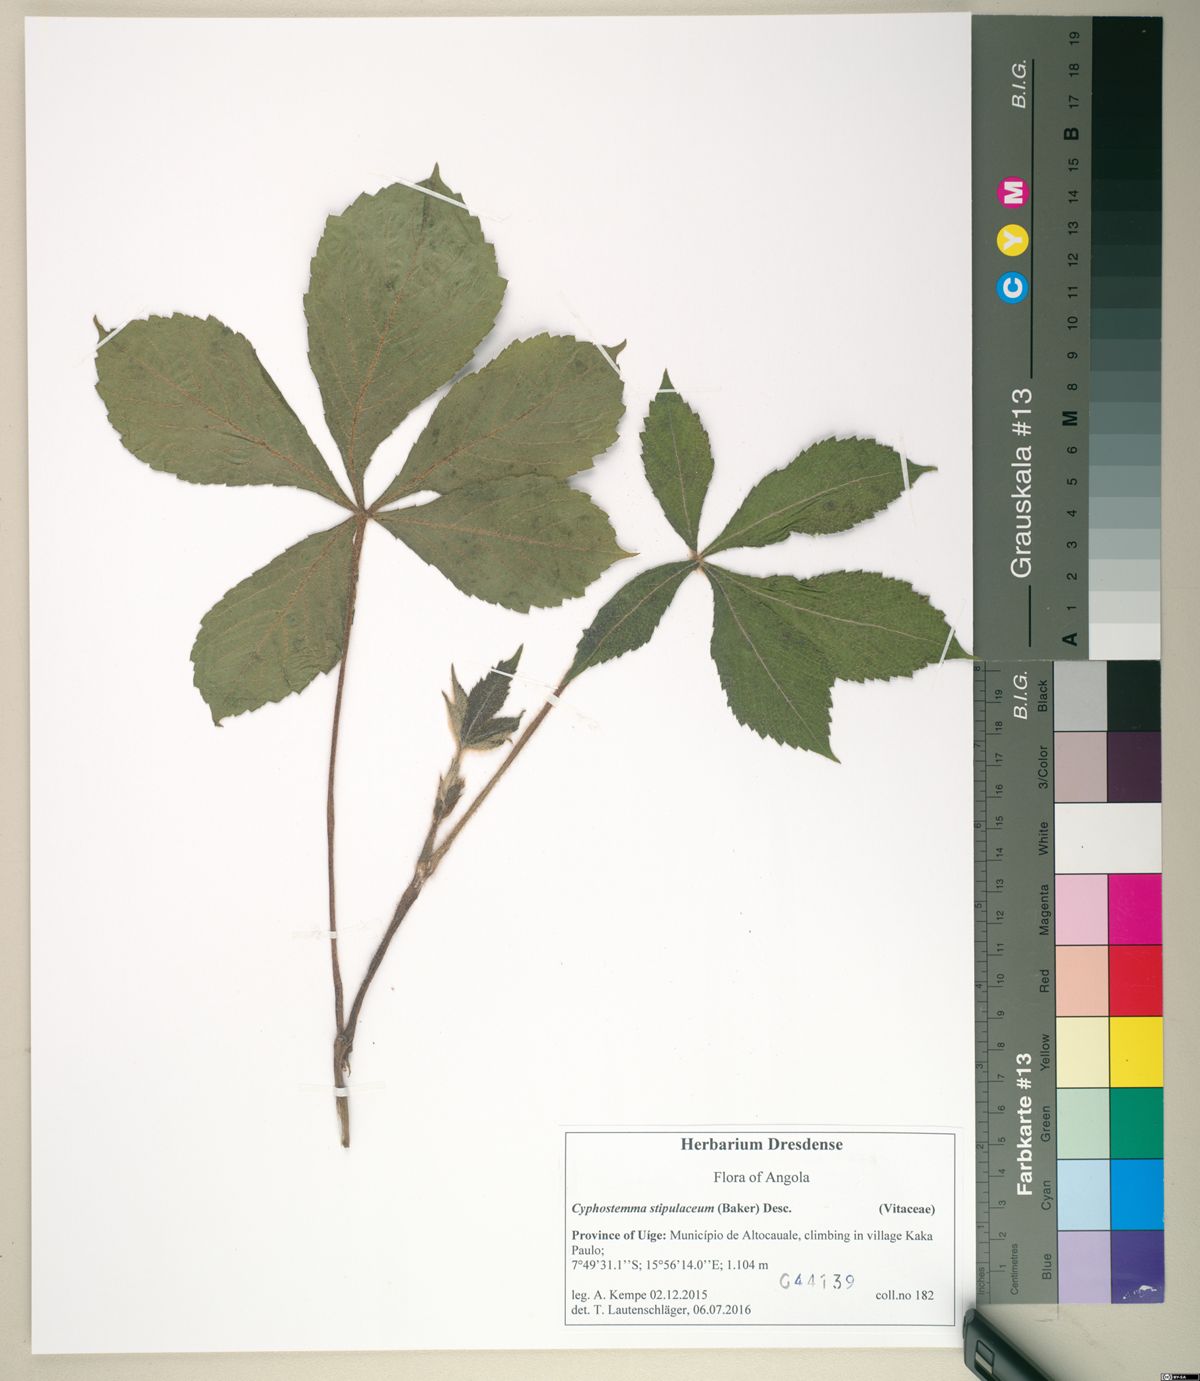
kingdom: Plantae
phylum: Tracheophyta
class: Magnoliopsida
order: Vitales
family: Vitaceae
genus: Cyphostemma
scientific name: Cyphostemma stipulaceum
